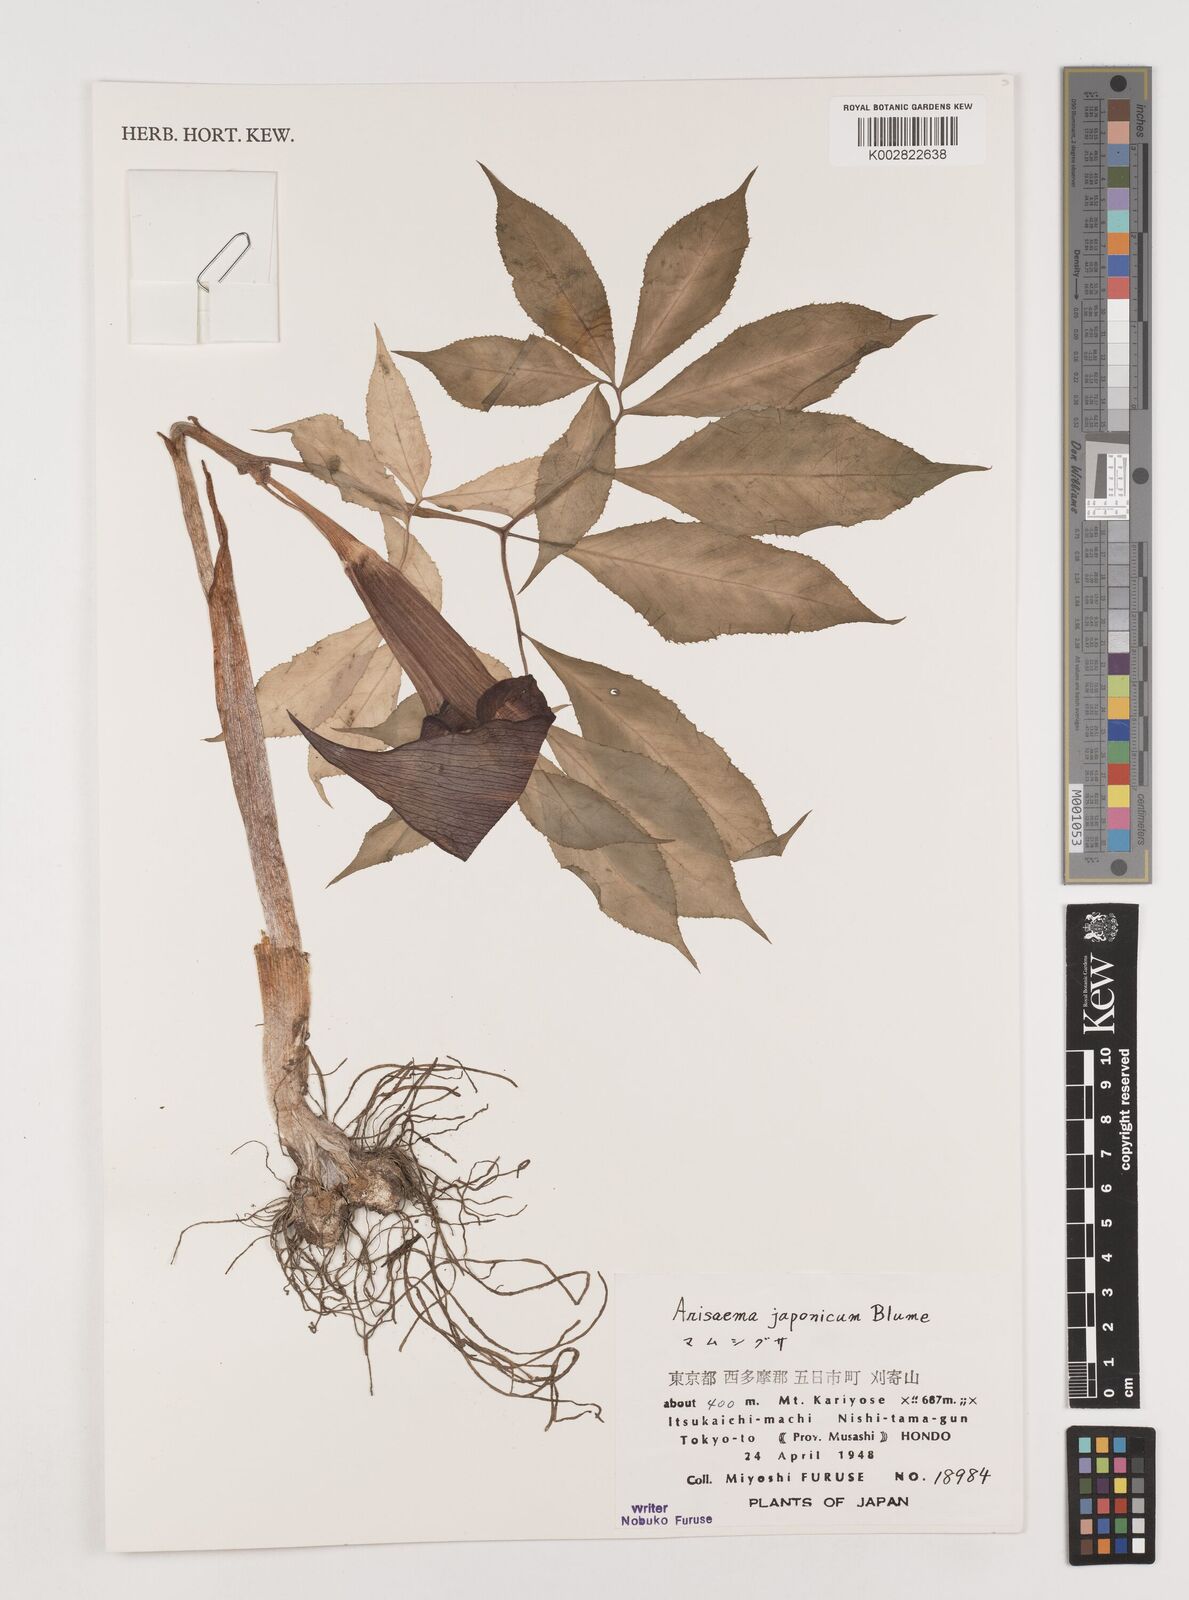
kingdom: Plantae
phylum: Tracheophyta
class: Liliopsida
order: Alismatales
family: Araceae
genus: Arisaema
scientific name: Arisaema serratum
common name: Japanese arisaema
